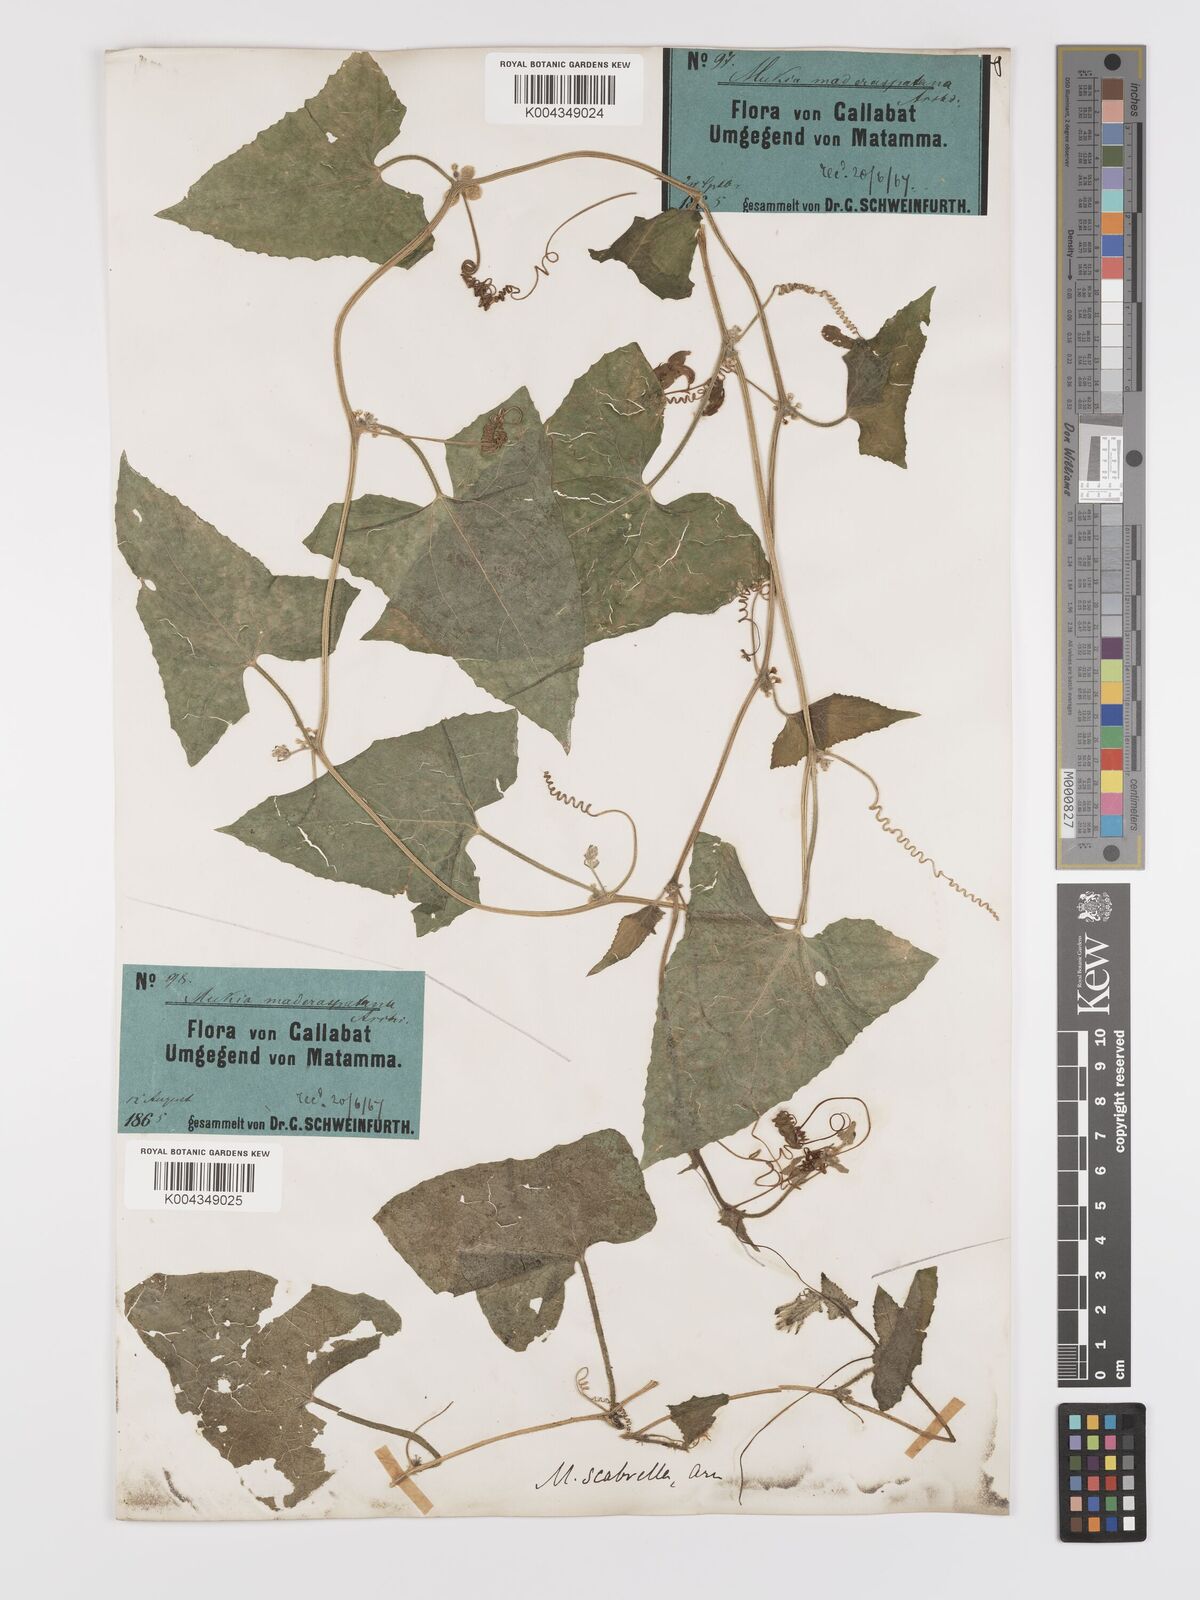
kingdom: Plantae
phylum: Tracheophyta
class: Magnoliopsida
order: Cucurbitales
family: Cucurbitaceae
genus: Cucumis
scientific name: Cucumis maderaspatanus
